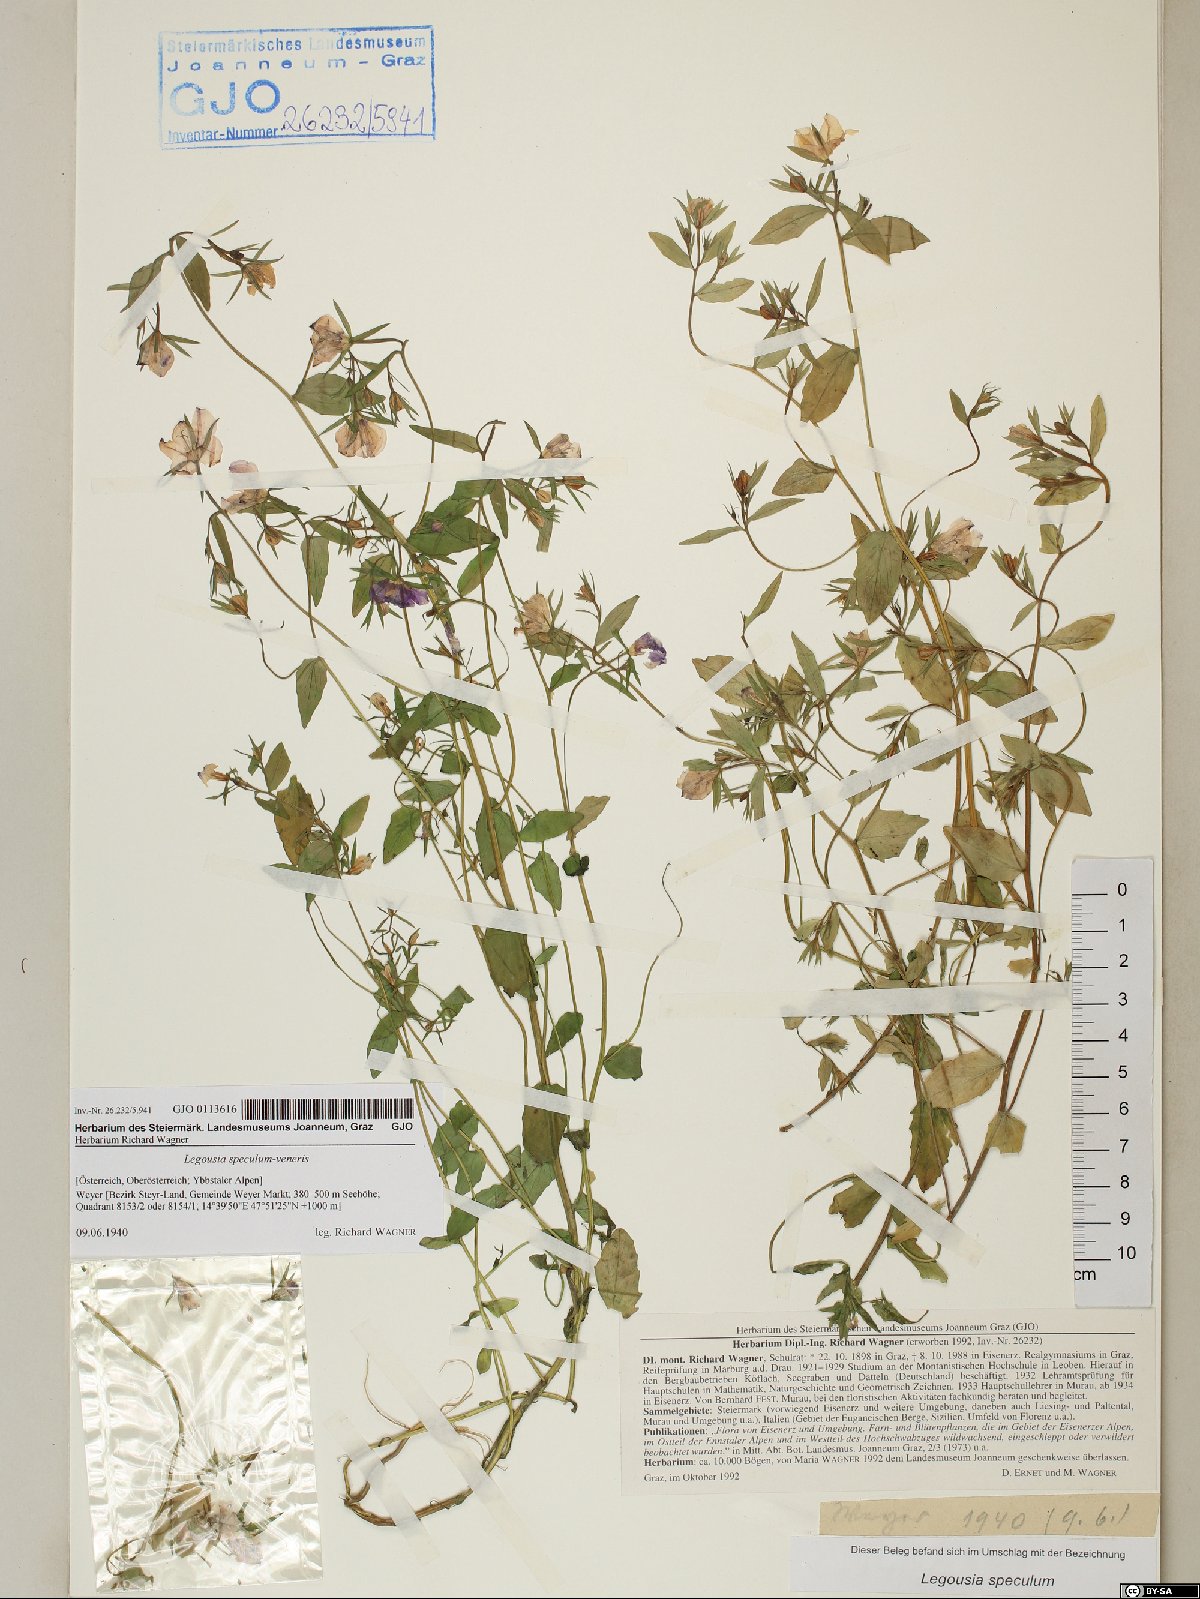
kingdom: Plantae
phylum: Tracheophyta
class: Magnoliopsida
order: Asterales
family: Campanulaceae
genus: Legousia
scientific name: Legousia speculum-veneris
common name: Large venus's-looking-glass
